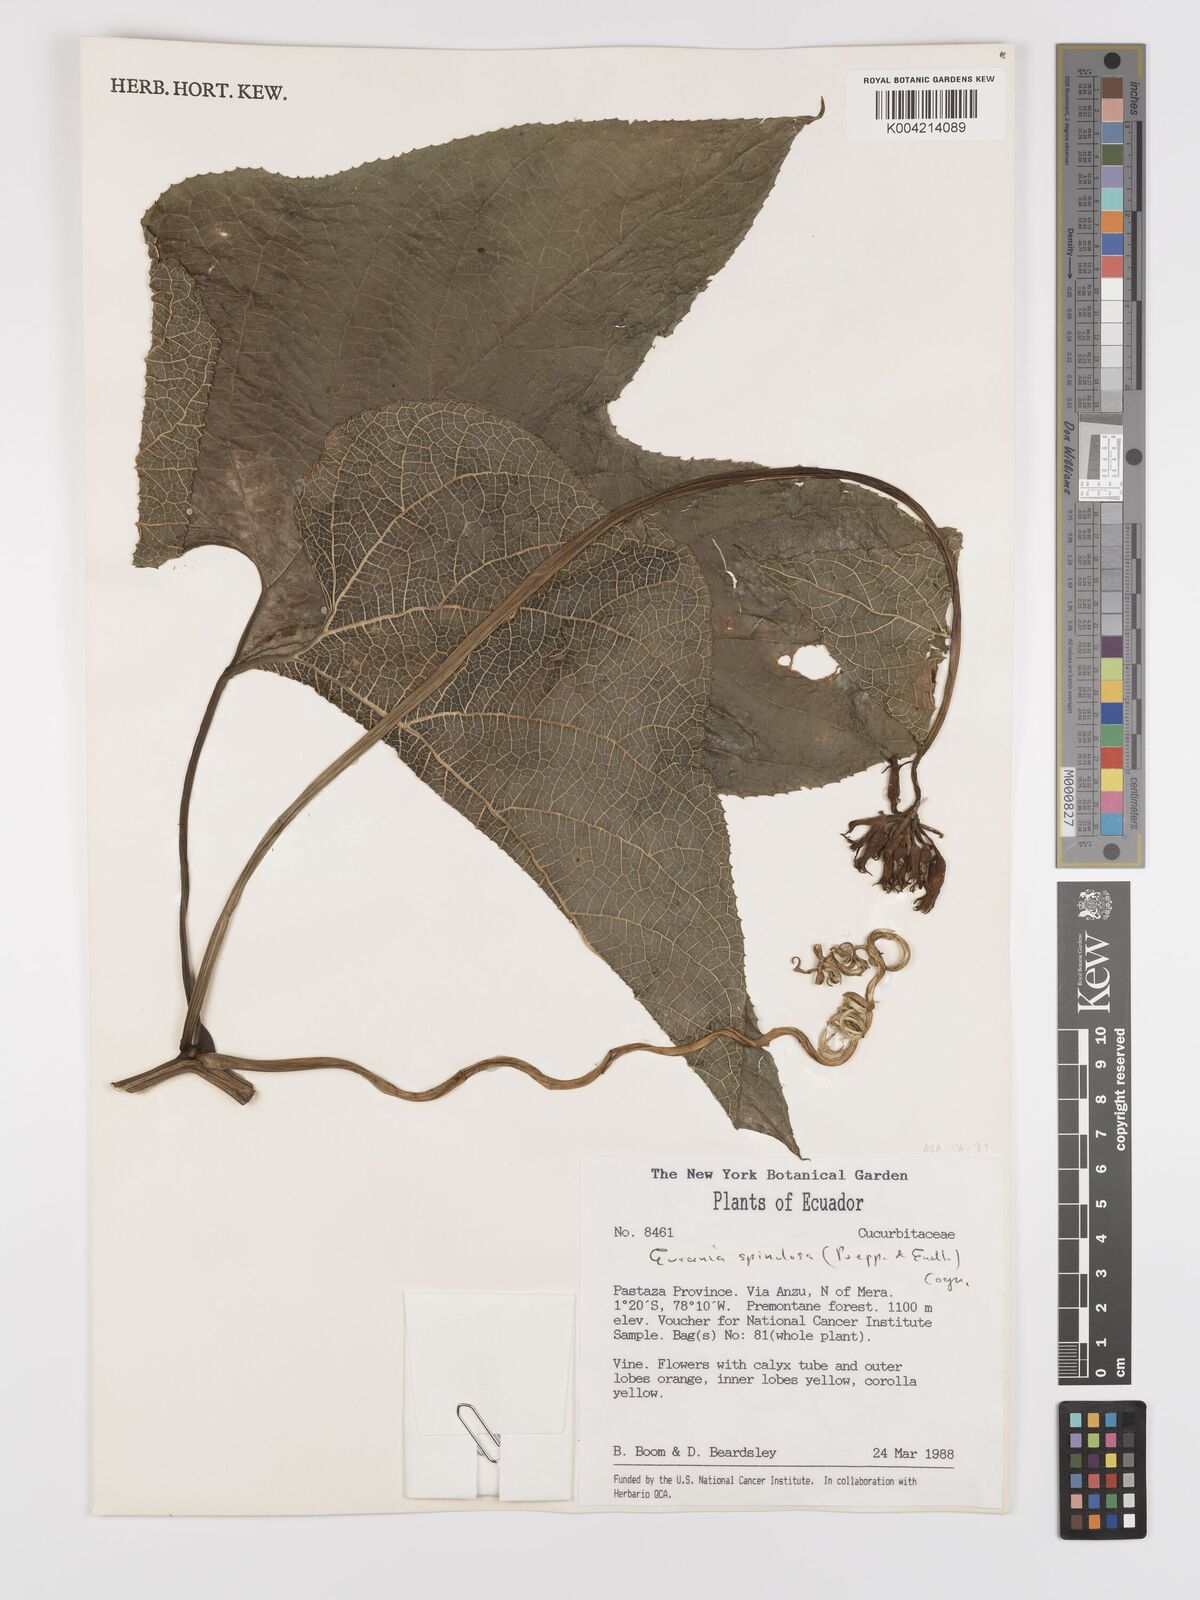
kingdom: Plantae
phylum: Tracheophyta
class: Magnoliopsida
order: Cucurbitales
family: Cucurbitaceae
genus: Gurania
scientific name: Gurania lobata
